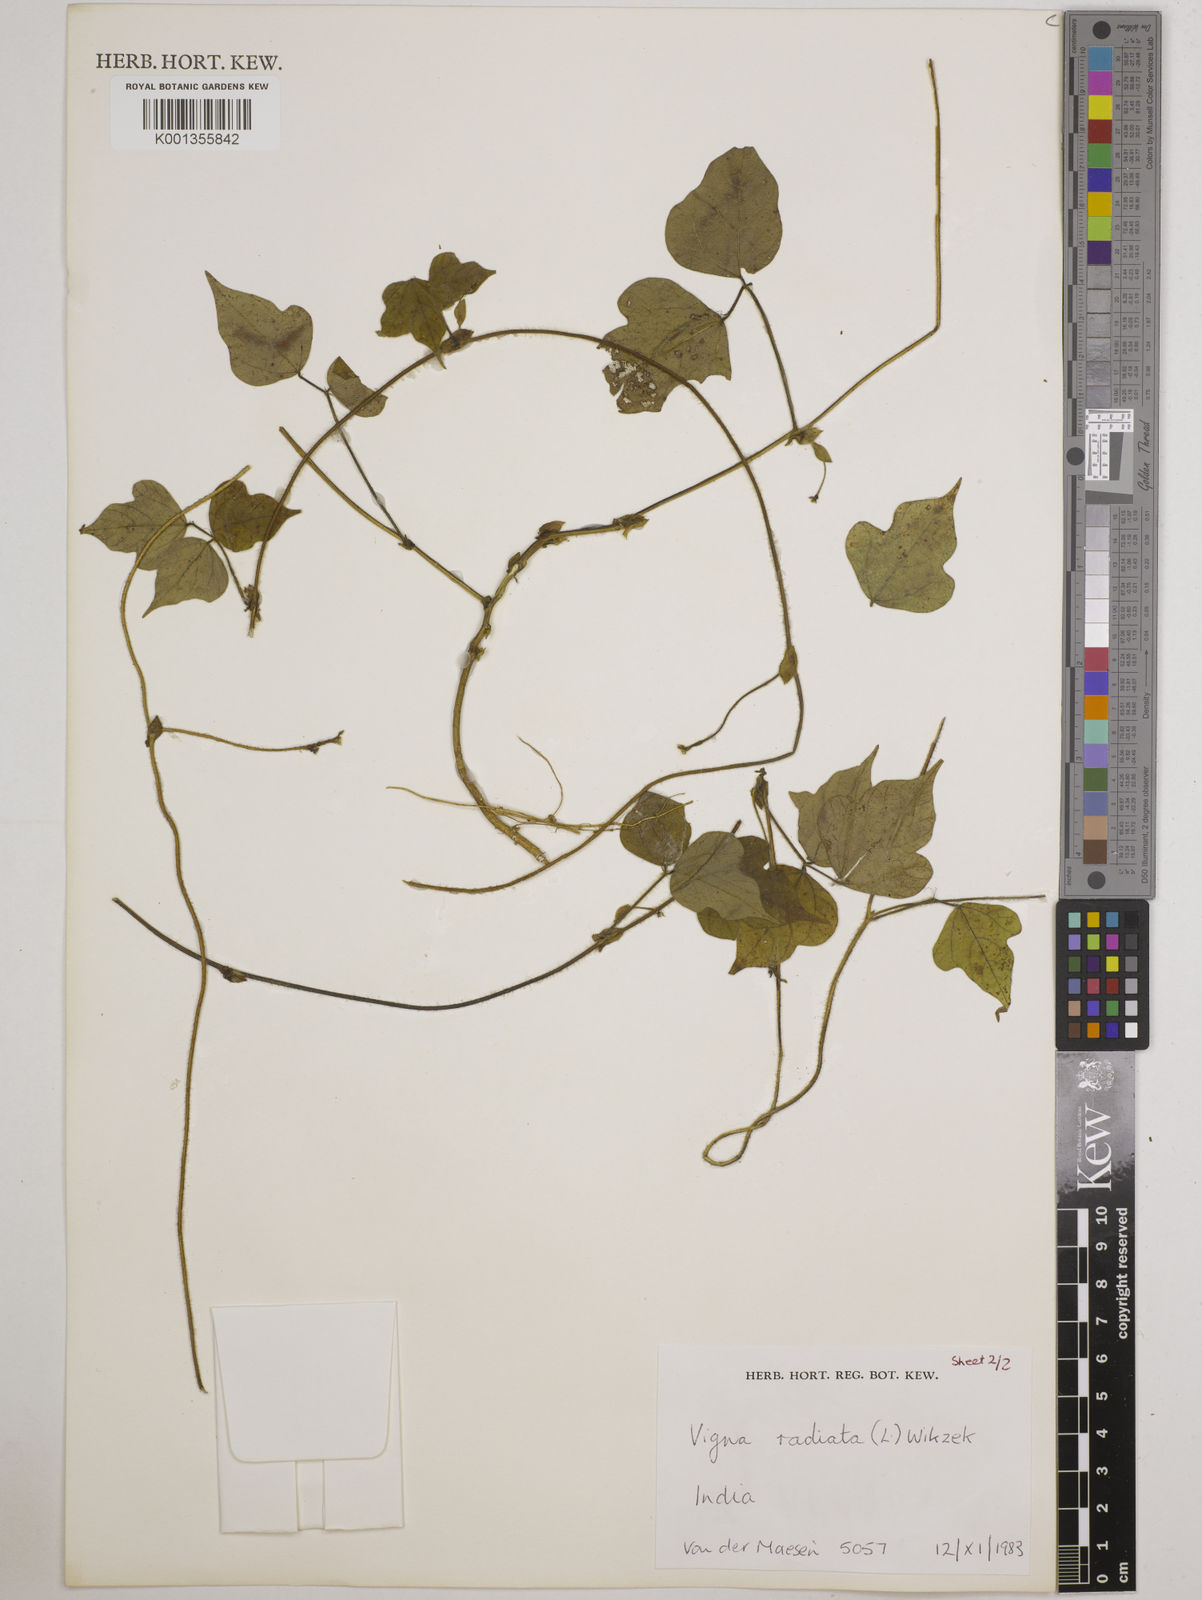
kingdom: Plantae
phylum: Tracheophyta
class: Magnoliopsida
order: Fabales
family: Fabaceae
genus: Vigna
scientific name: Vigna radiata
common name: Mung-bean
